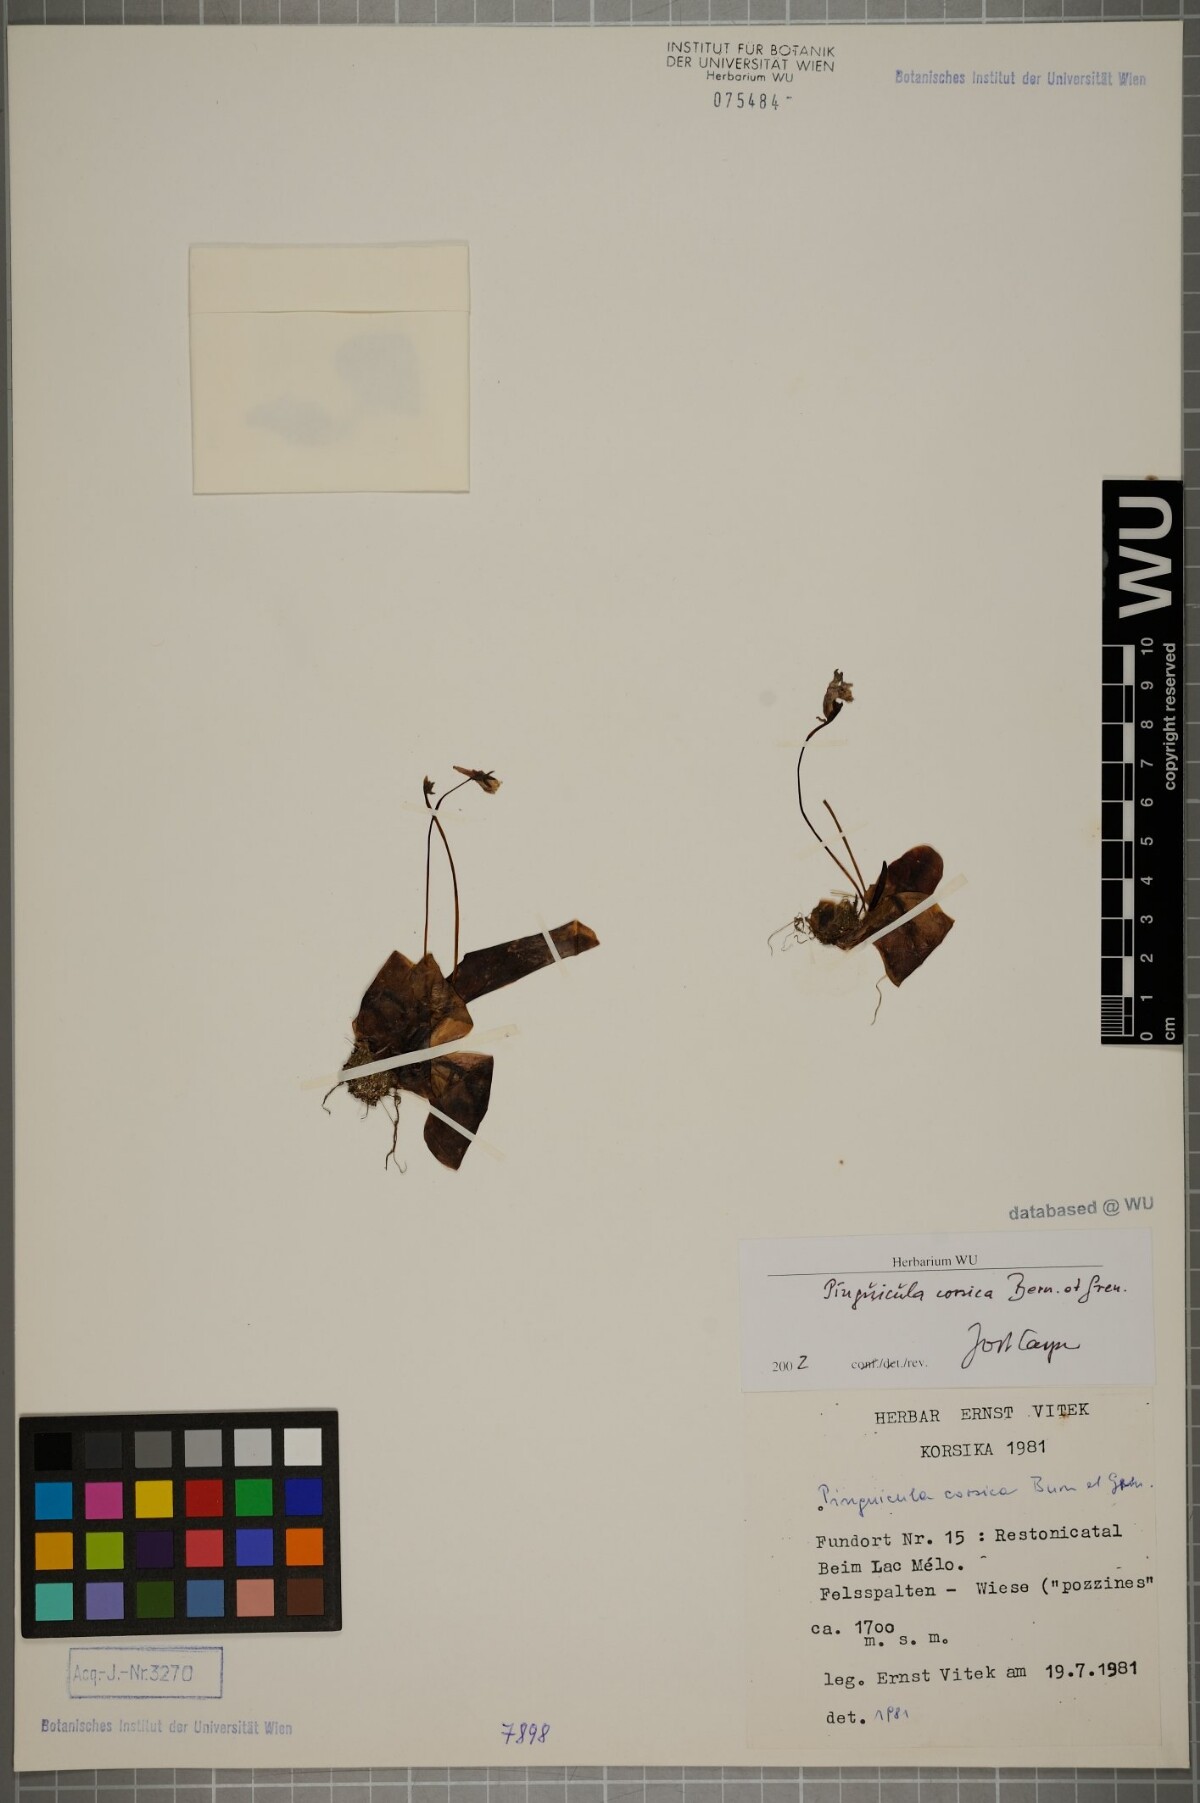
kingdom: Plantae
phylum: Tracheophyta
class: Magnoliopsida
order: Lamiales
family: Lentibulariaceae
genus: Pinguicula
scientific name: Pinguicula corsica
